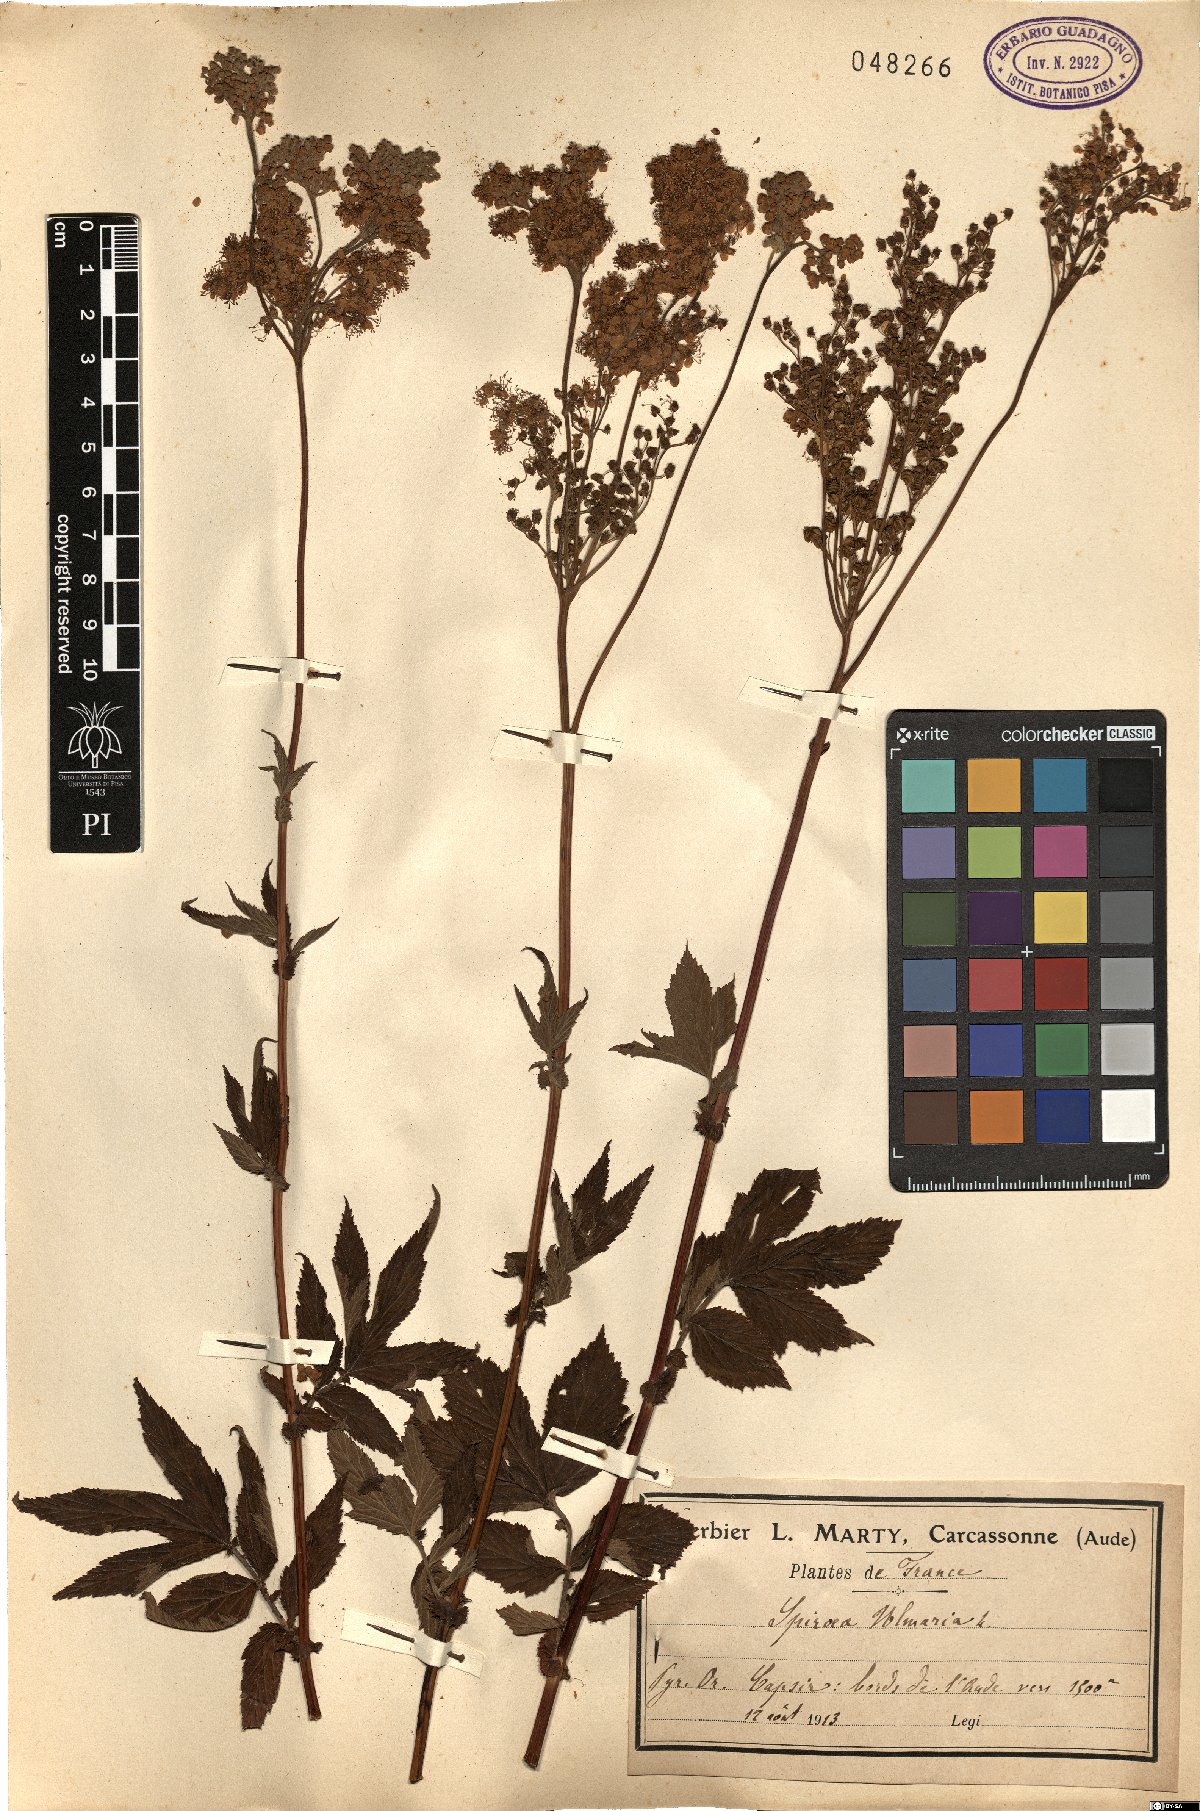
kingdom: Plantae
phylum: Tracheophyta
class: Magnoliopsida
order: Rosales
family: Rosaceae
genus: Filipendula
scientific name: Filipendula ulmaria
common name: Meadowsweet
